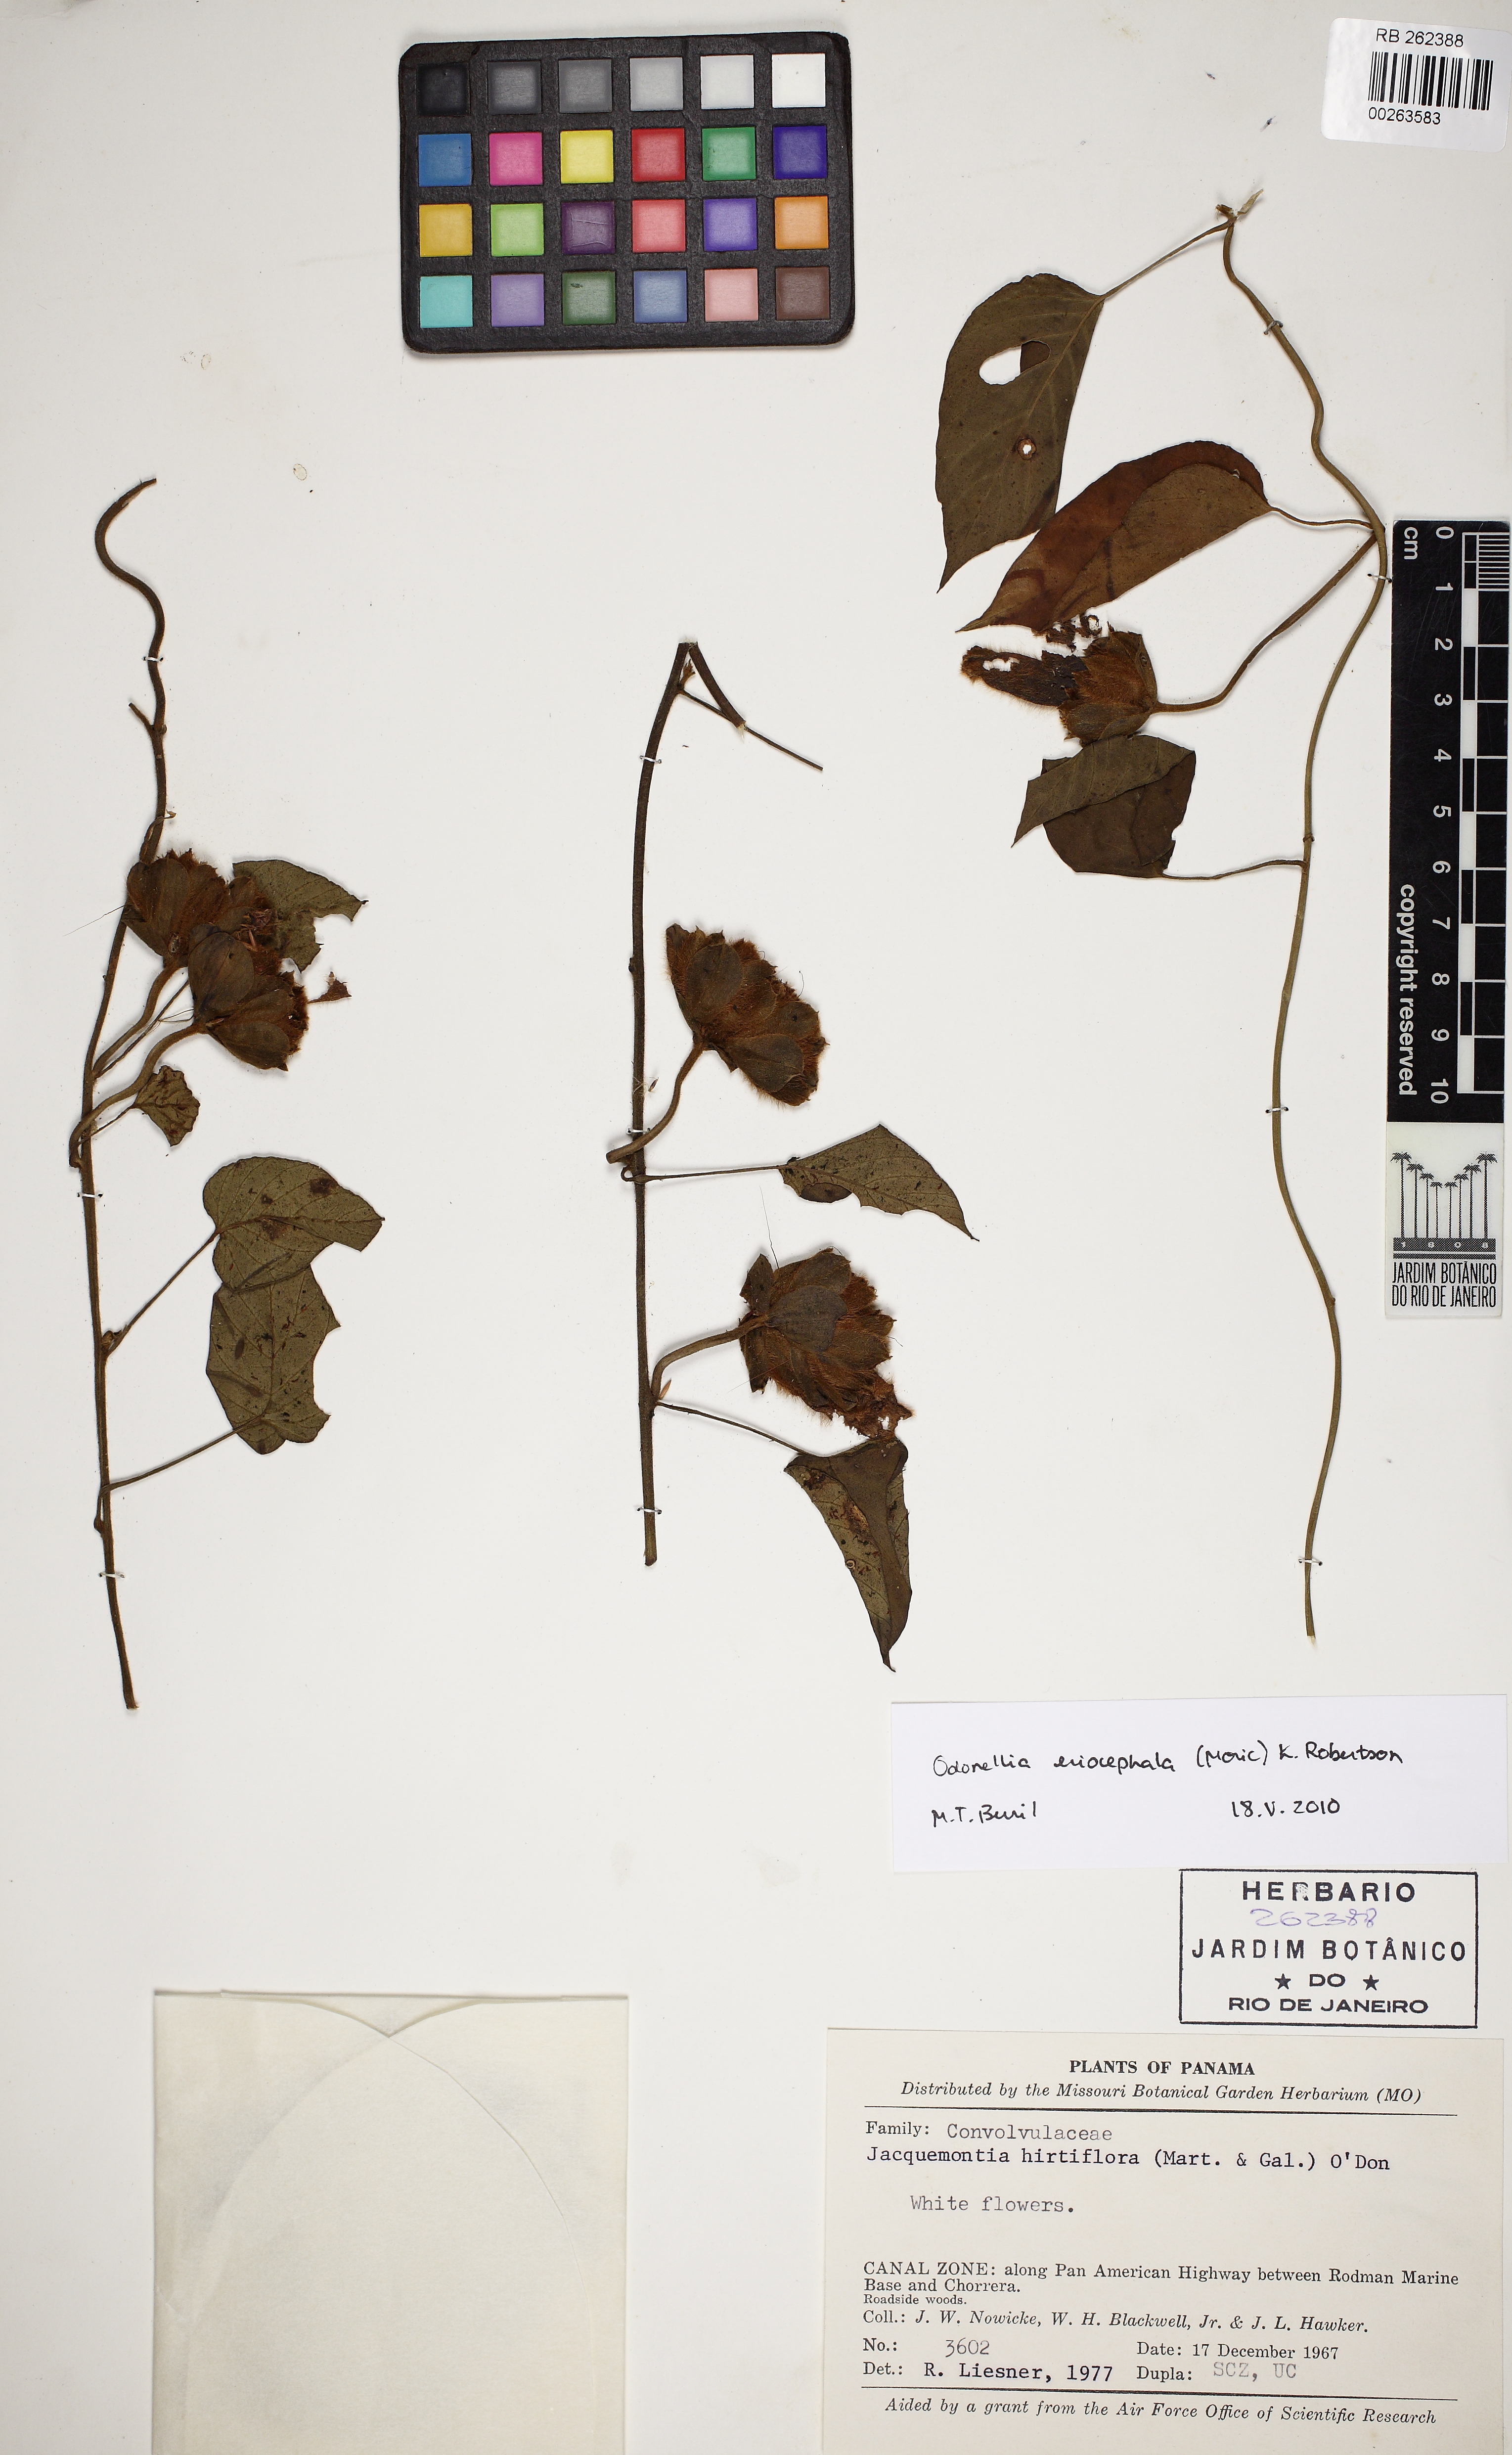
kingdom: Plantae
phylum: Tracheophyta
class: Magnoliopsida
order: Solanales
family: Convolvulaceae
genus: Odonellia
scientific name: Odonellia hirtiflora
